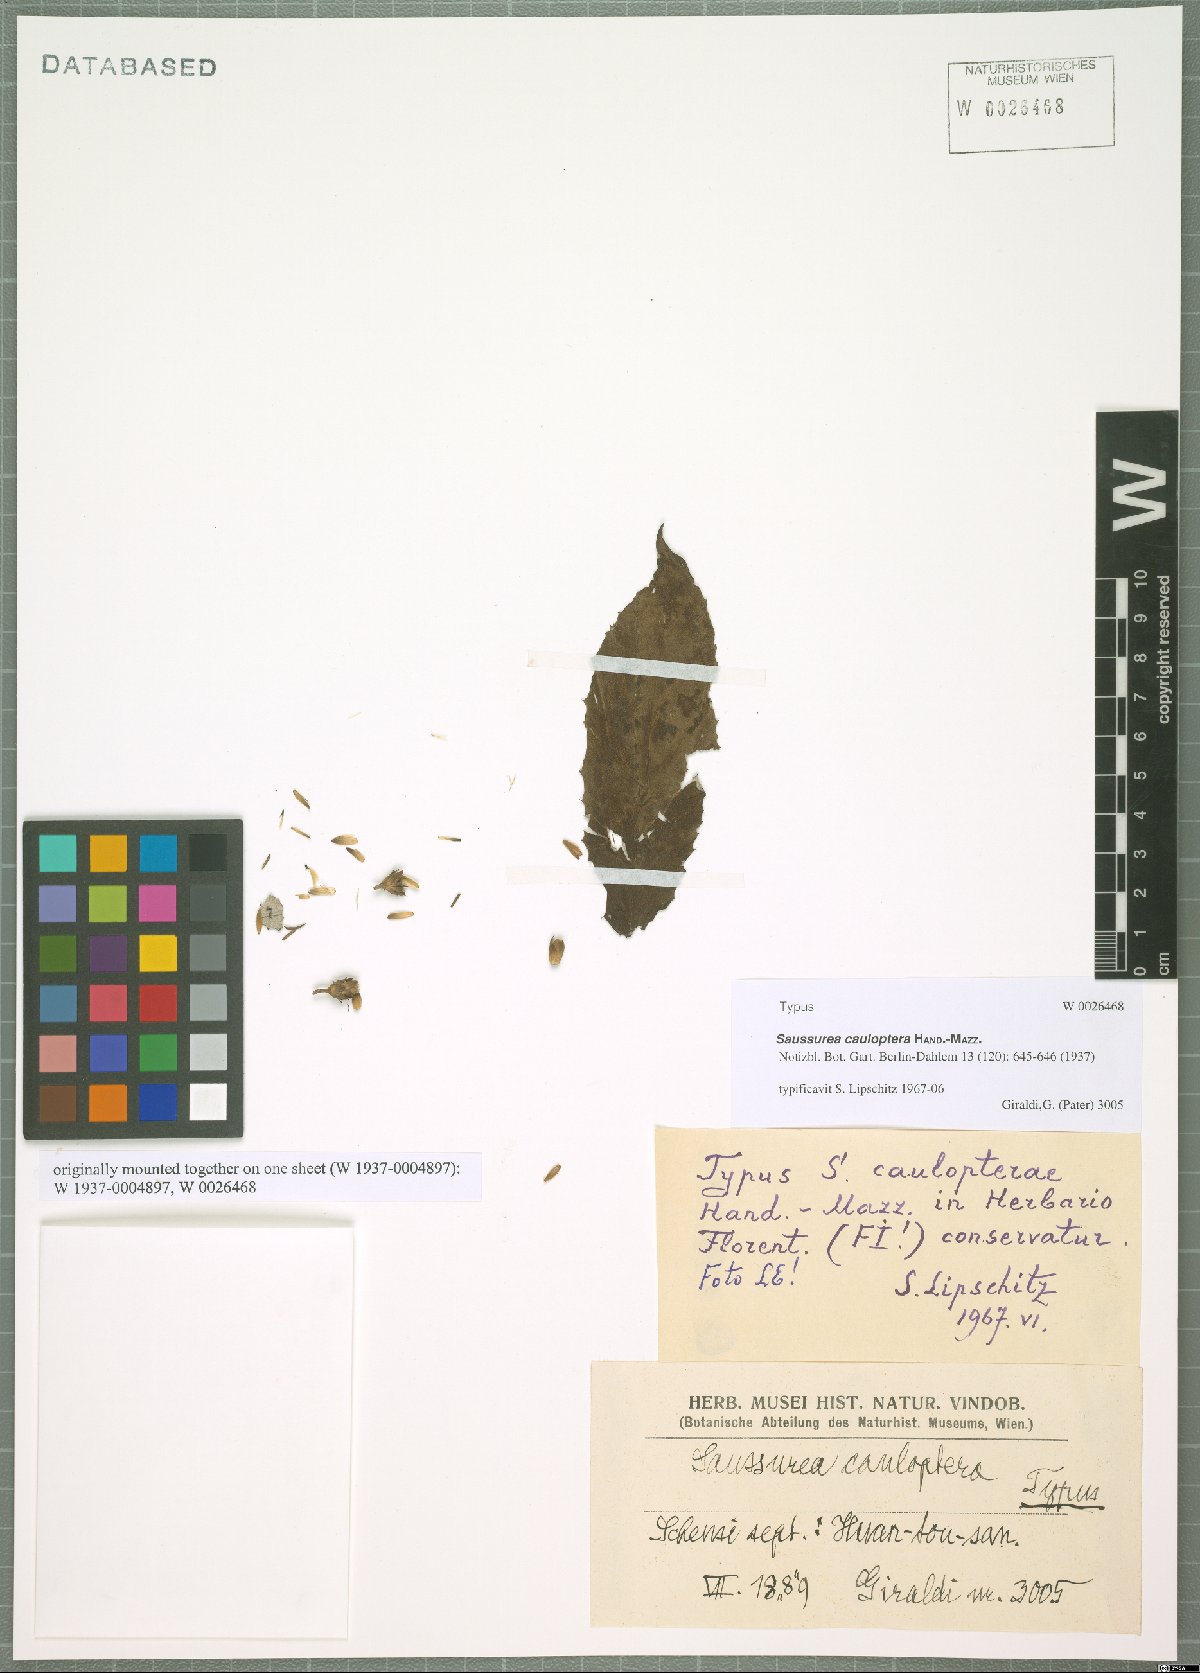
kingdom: Plantae
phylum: Tracheophyta
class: Magnoliopsida
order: Asterales
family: Asteraceae
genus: Saussurea
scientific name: Saussurea cauloptera
